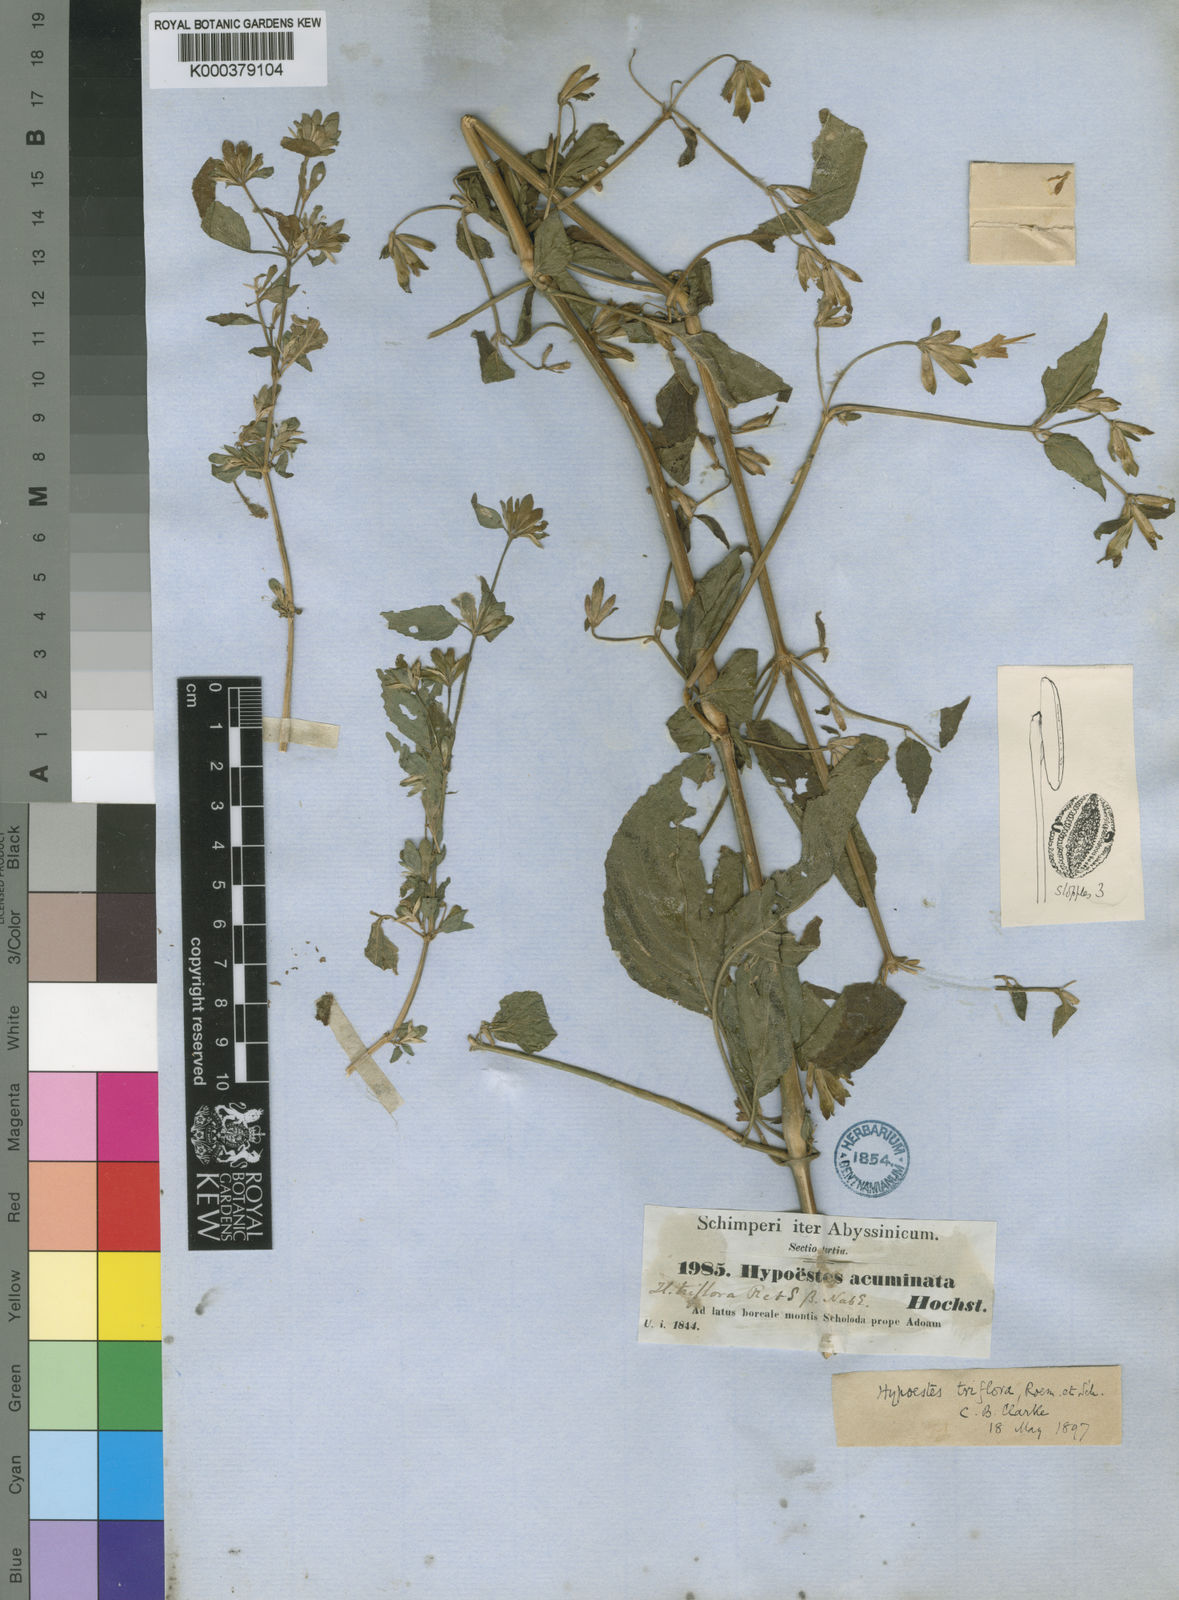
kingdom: Plantae
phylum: Tracheophyta
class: Magnoliopsida
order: Lamiales
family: Acanthaceae
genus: Hypoestes
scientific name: Hypoestes triflora
